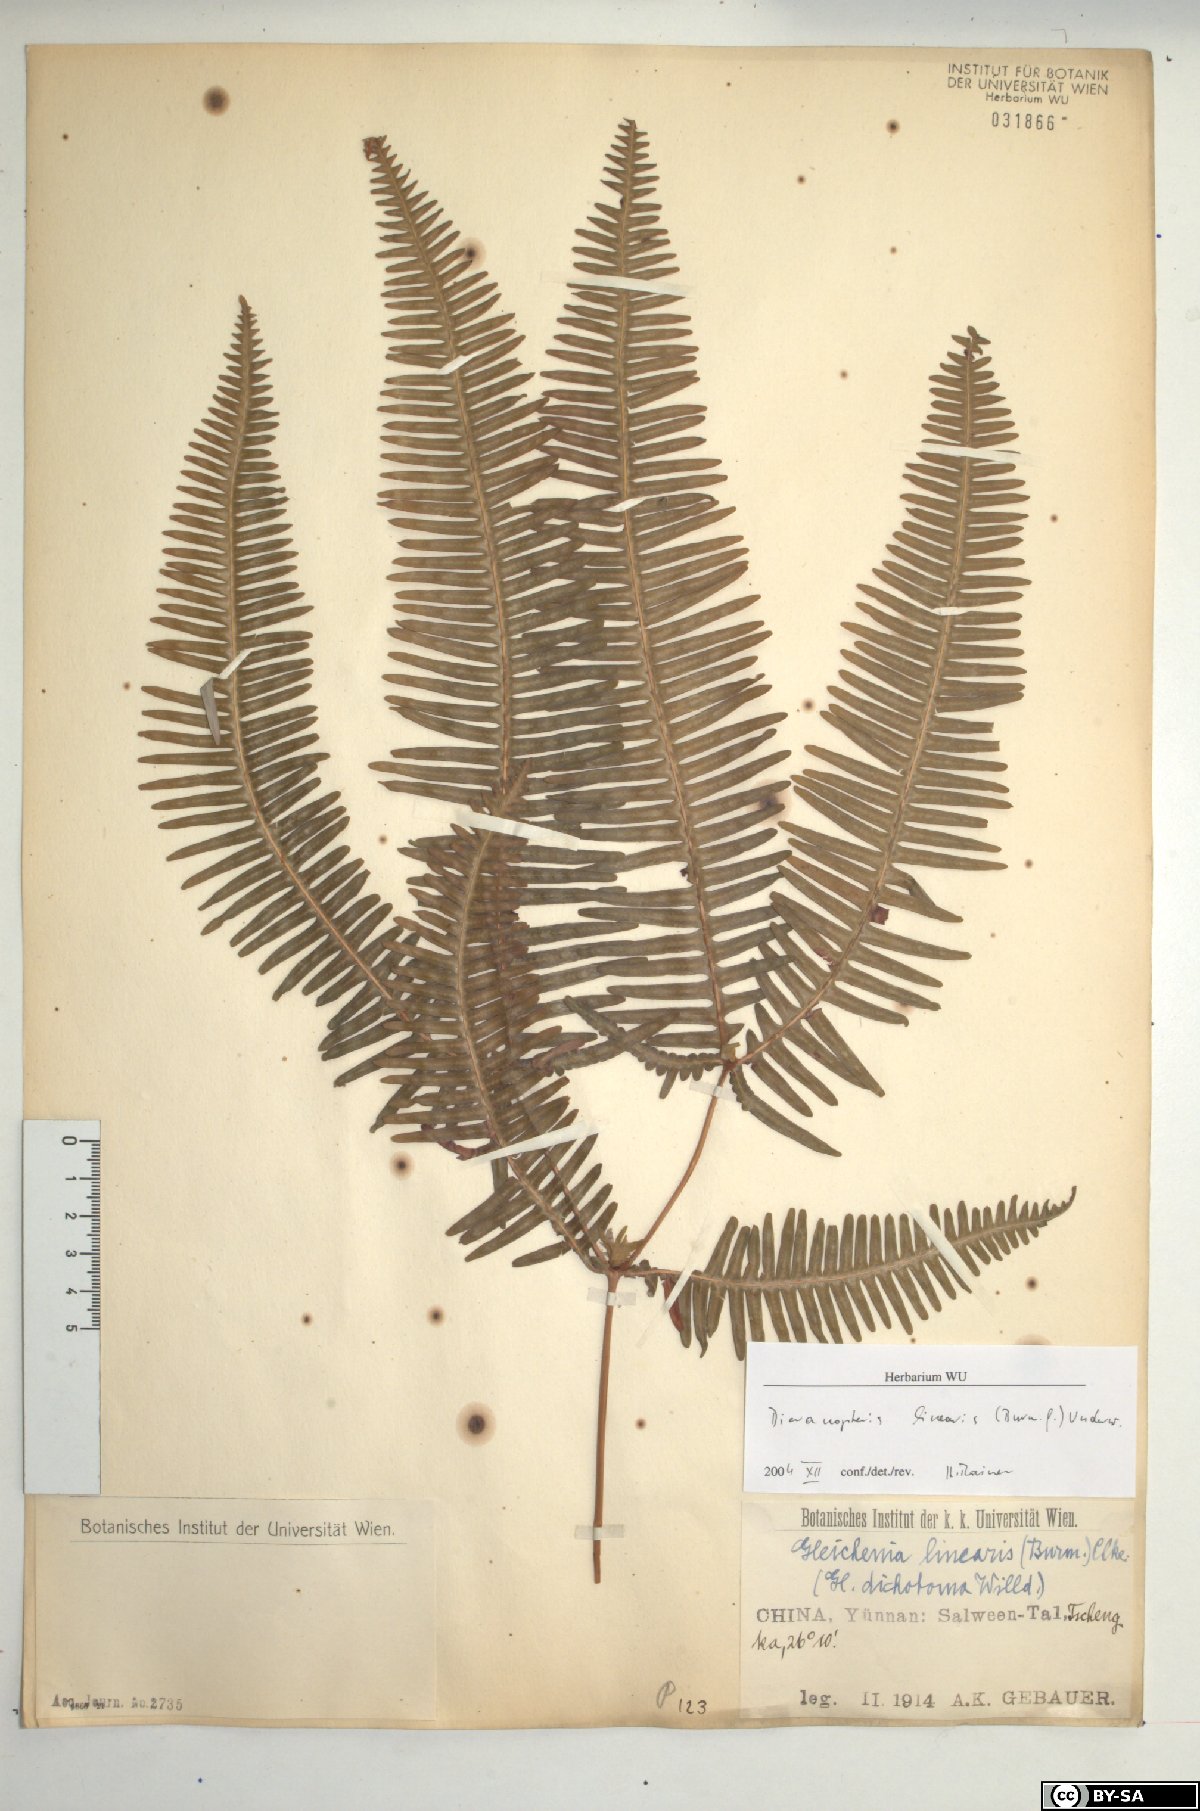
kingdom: Plantae
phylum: Tracheophyta
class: Polypodiopsida
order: Gleicheniales
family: Gleicheniaceae
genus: Dicranopteris
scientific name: Dicranopteris linearis
